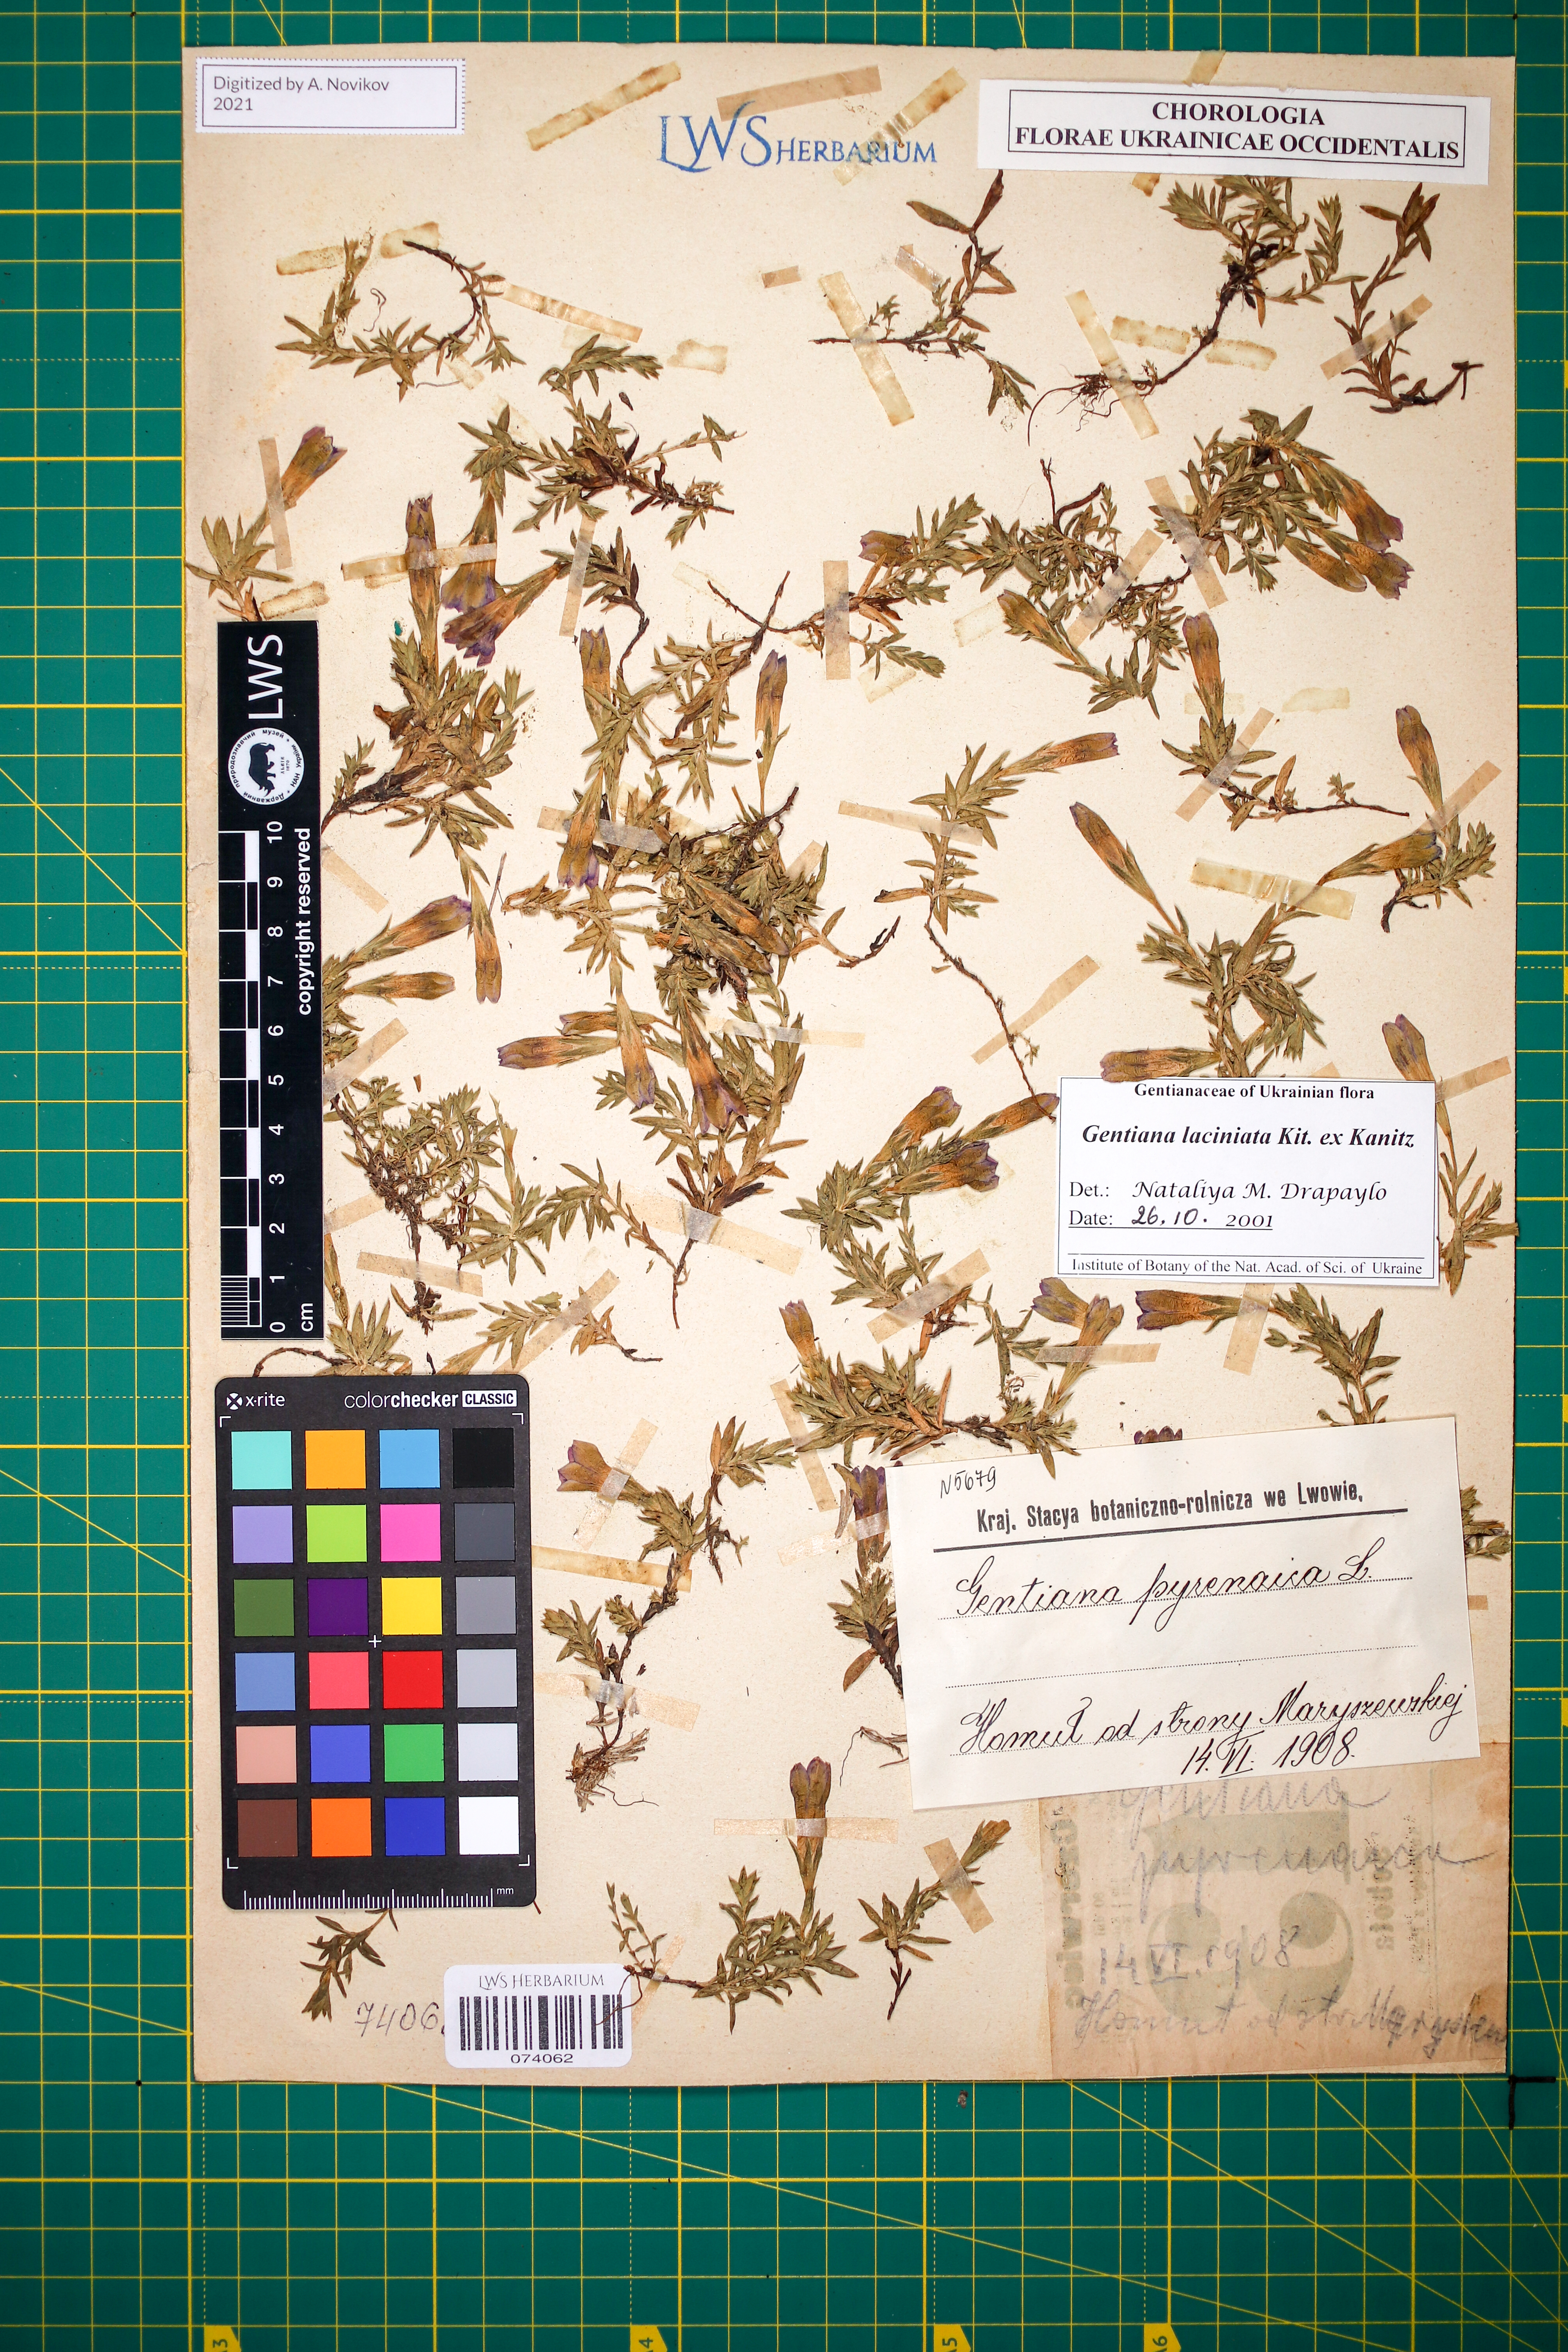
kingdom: Plantae
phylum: Tracheophyta
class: Magnoliopsida
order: Gentianales
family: Gentianaceae
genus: Gentiana
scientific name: Gentiana laciniata
